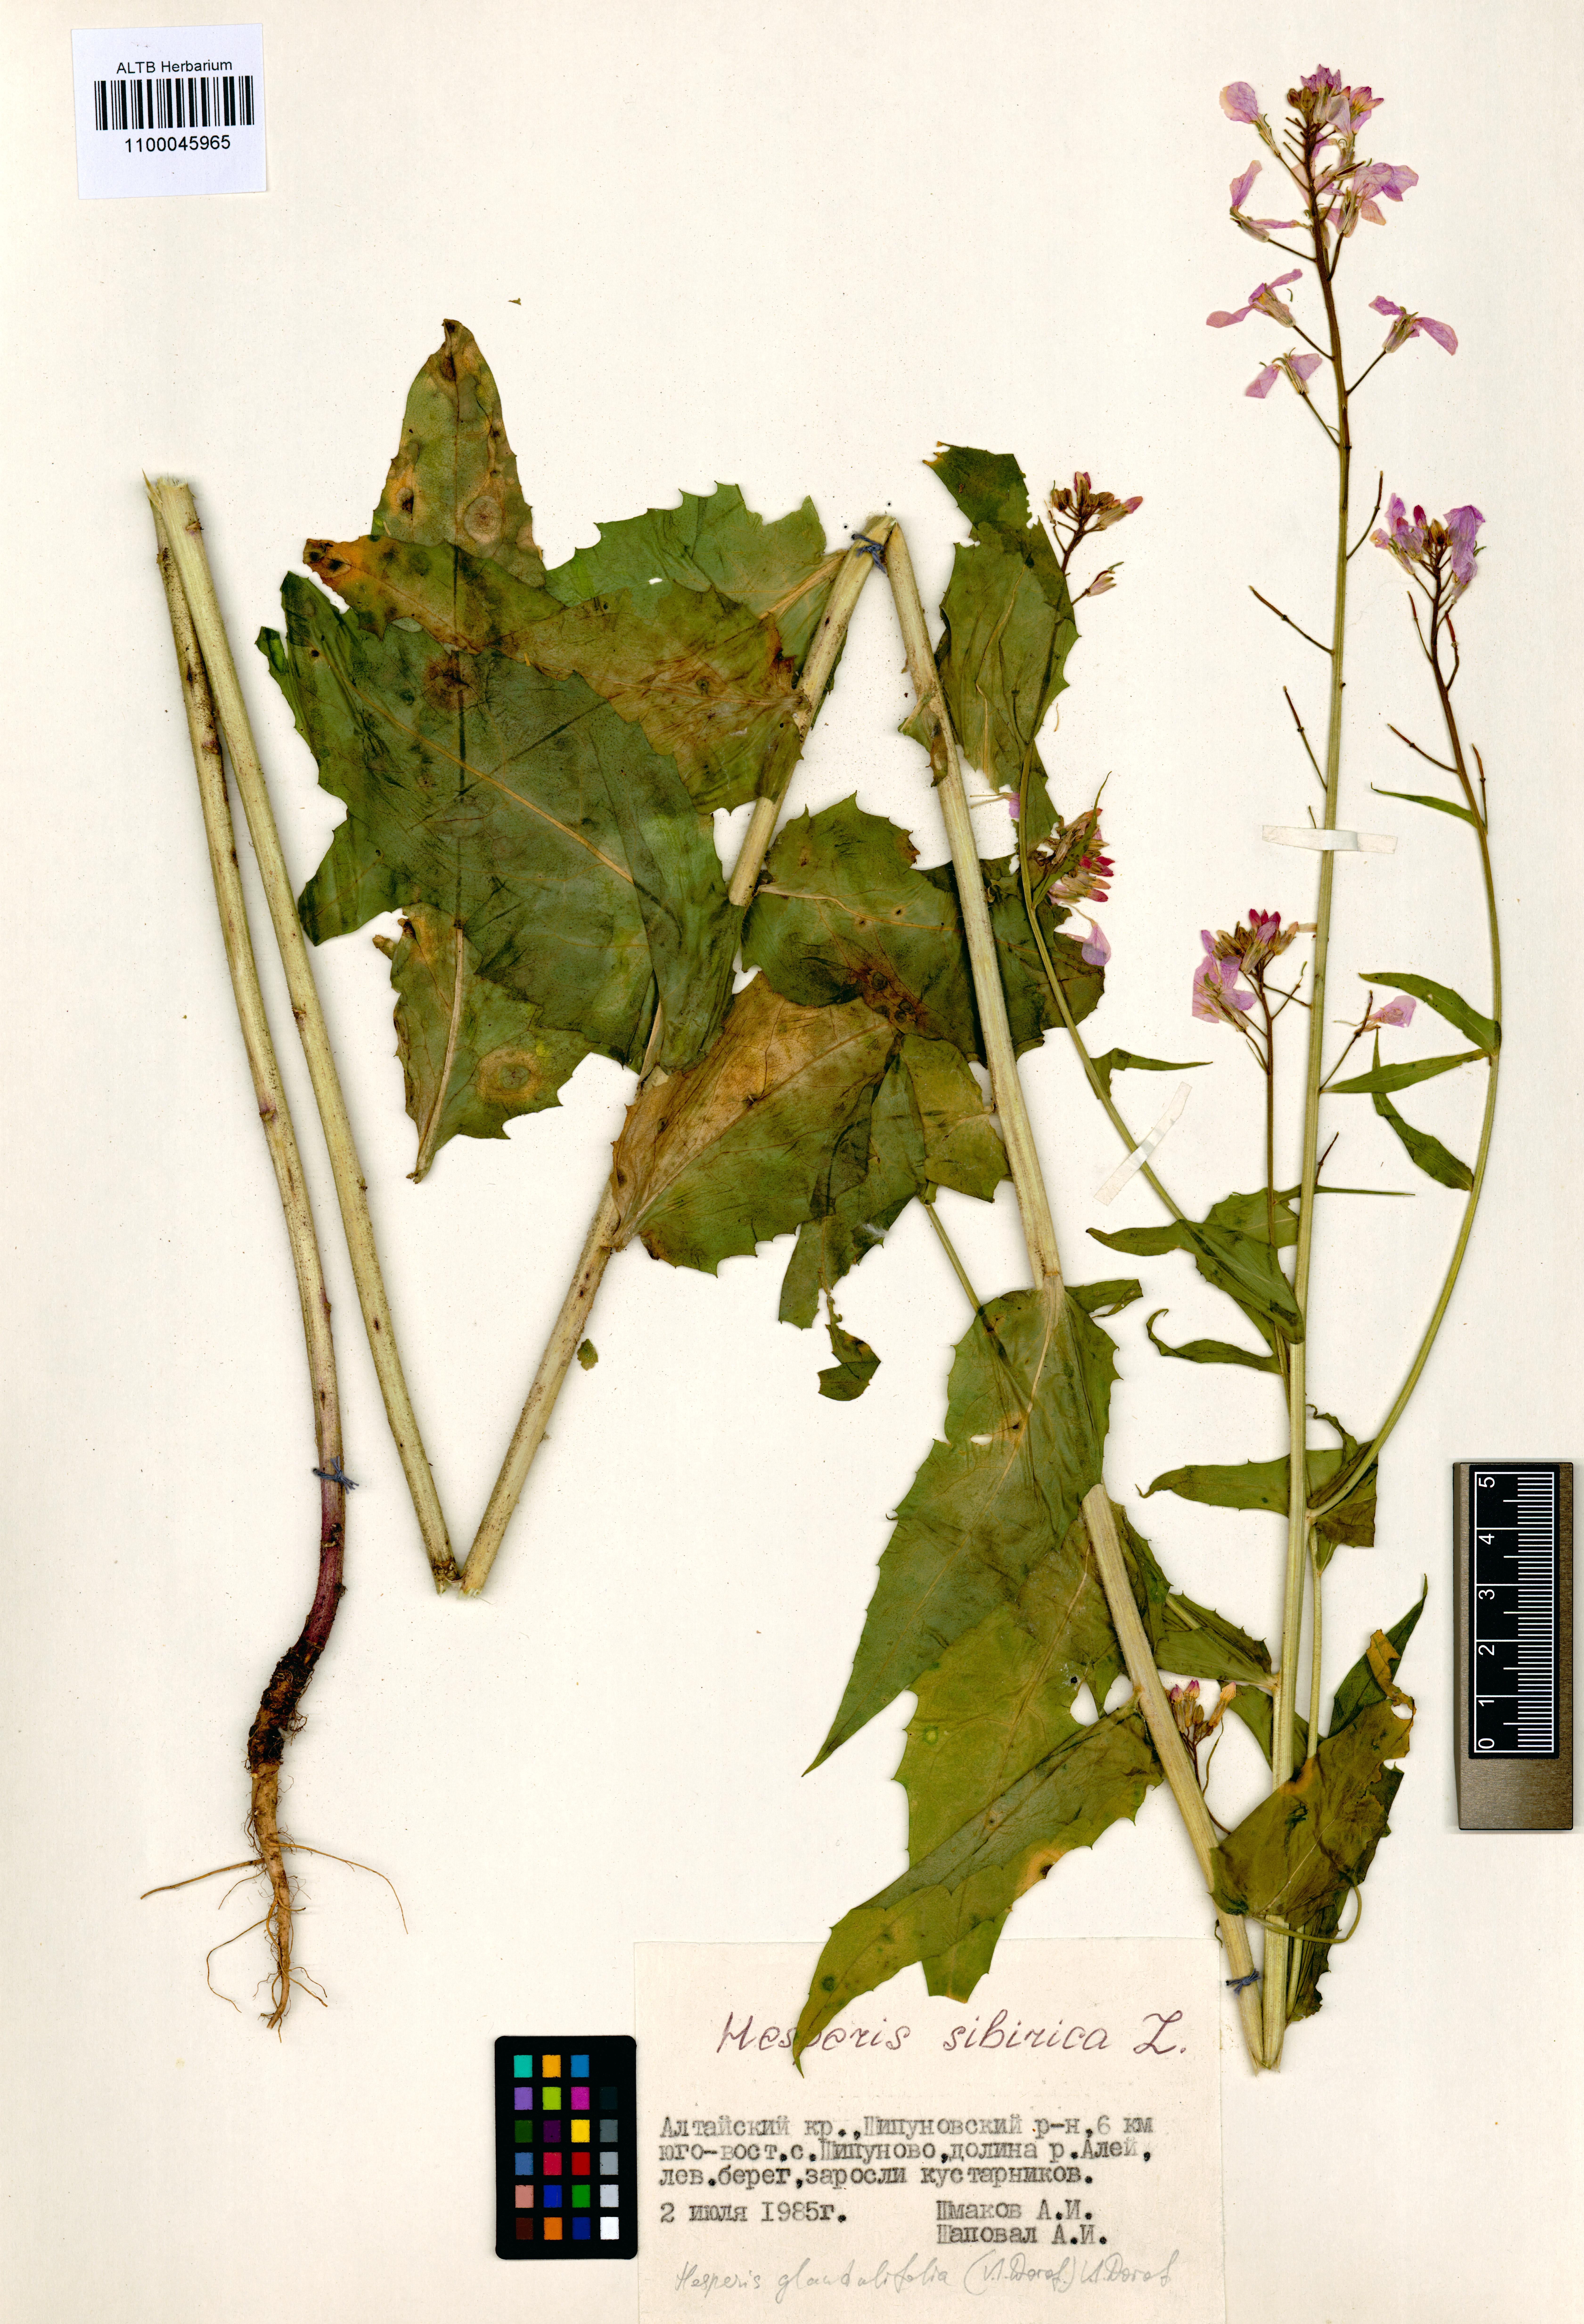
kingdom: Plantae
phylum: Tracheophyta
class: Magnoliopsida
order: Brassicales
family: Brassicaceae
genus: Hesperis
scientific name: Hesperis sibirica
